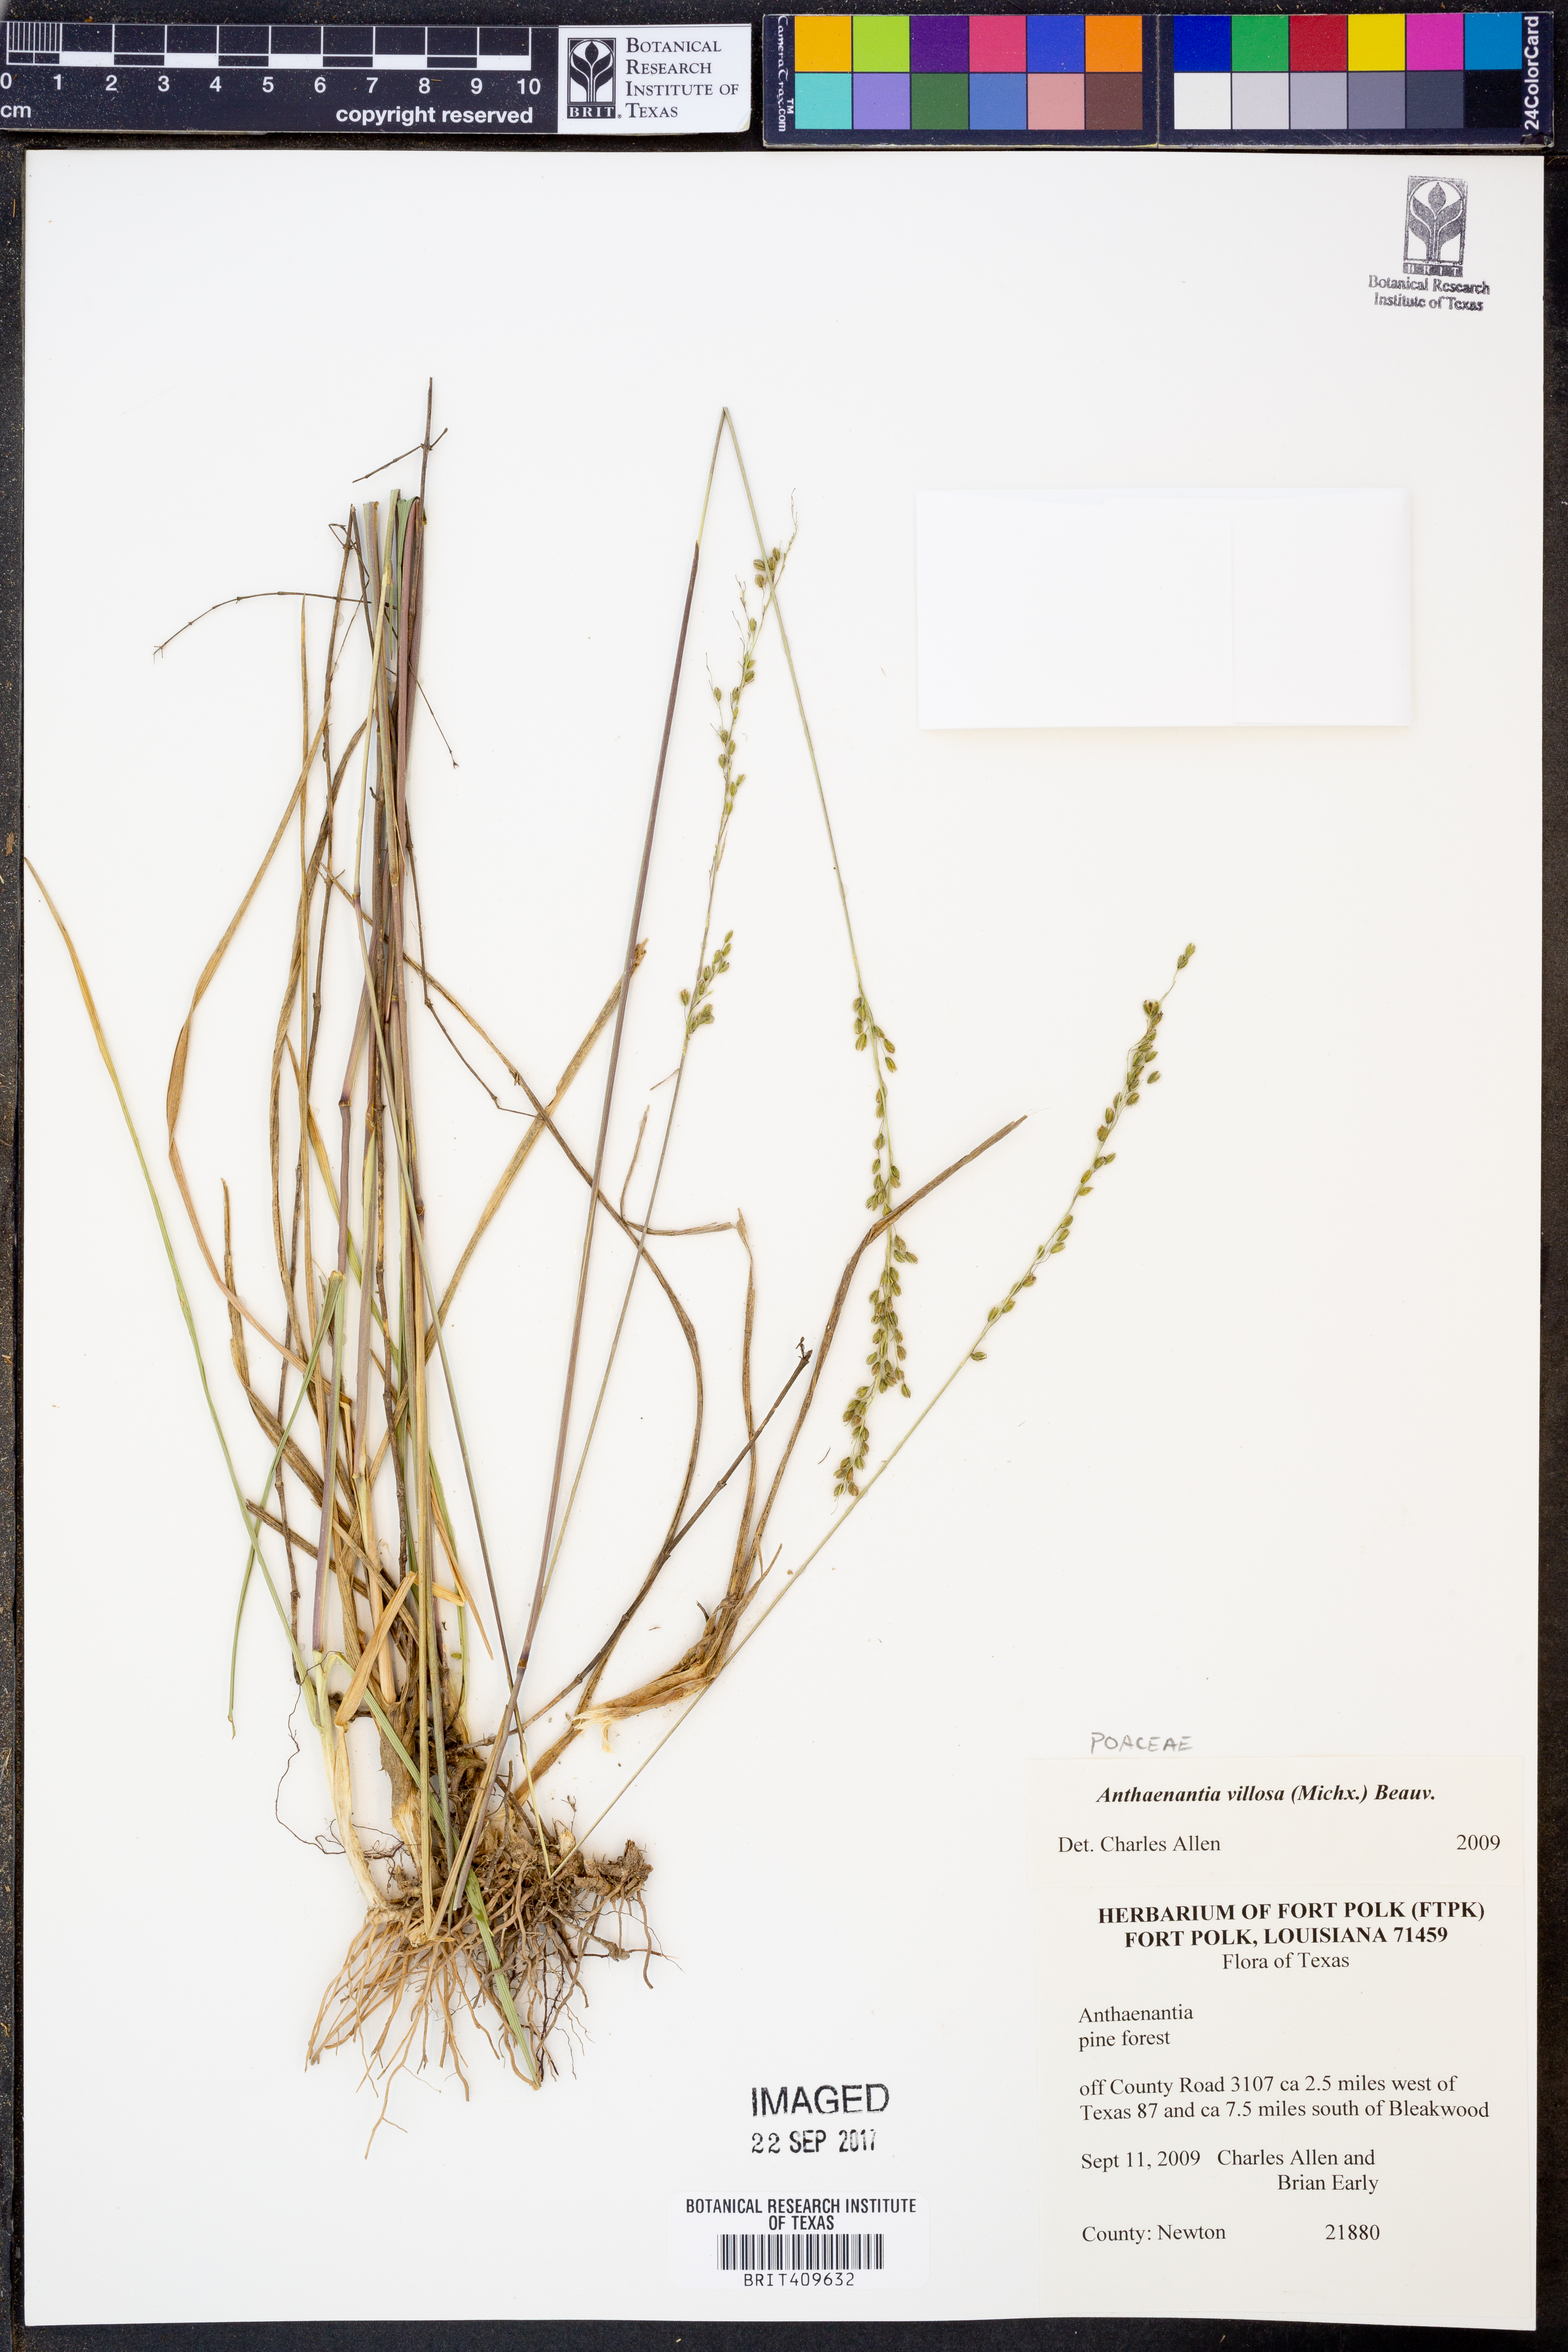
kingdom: Plantae
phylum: Tracheophyta
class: Liliopsida
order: Poales
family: Poaceae
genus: Anthenantia
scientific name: Anthenantia villosa
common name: Green silkyscale
